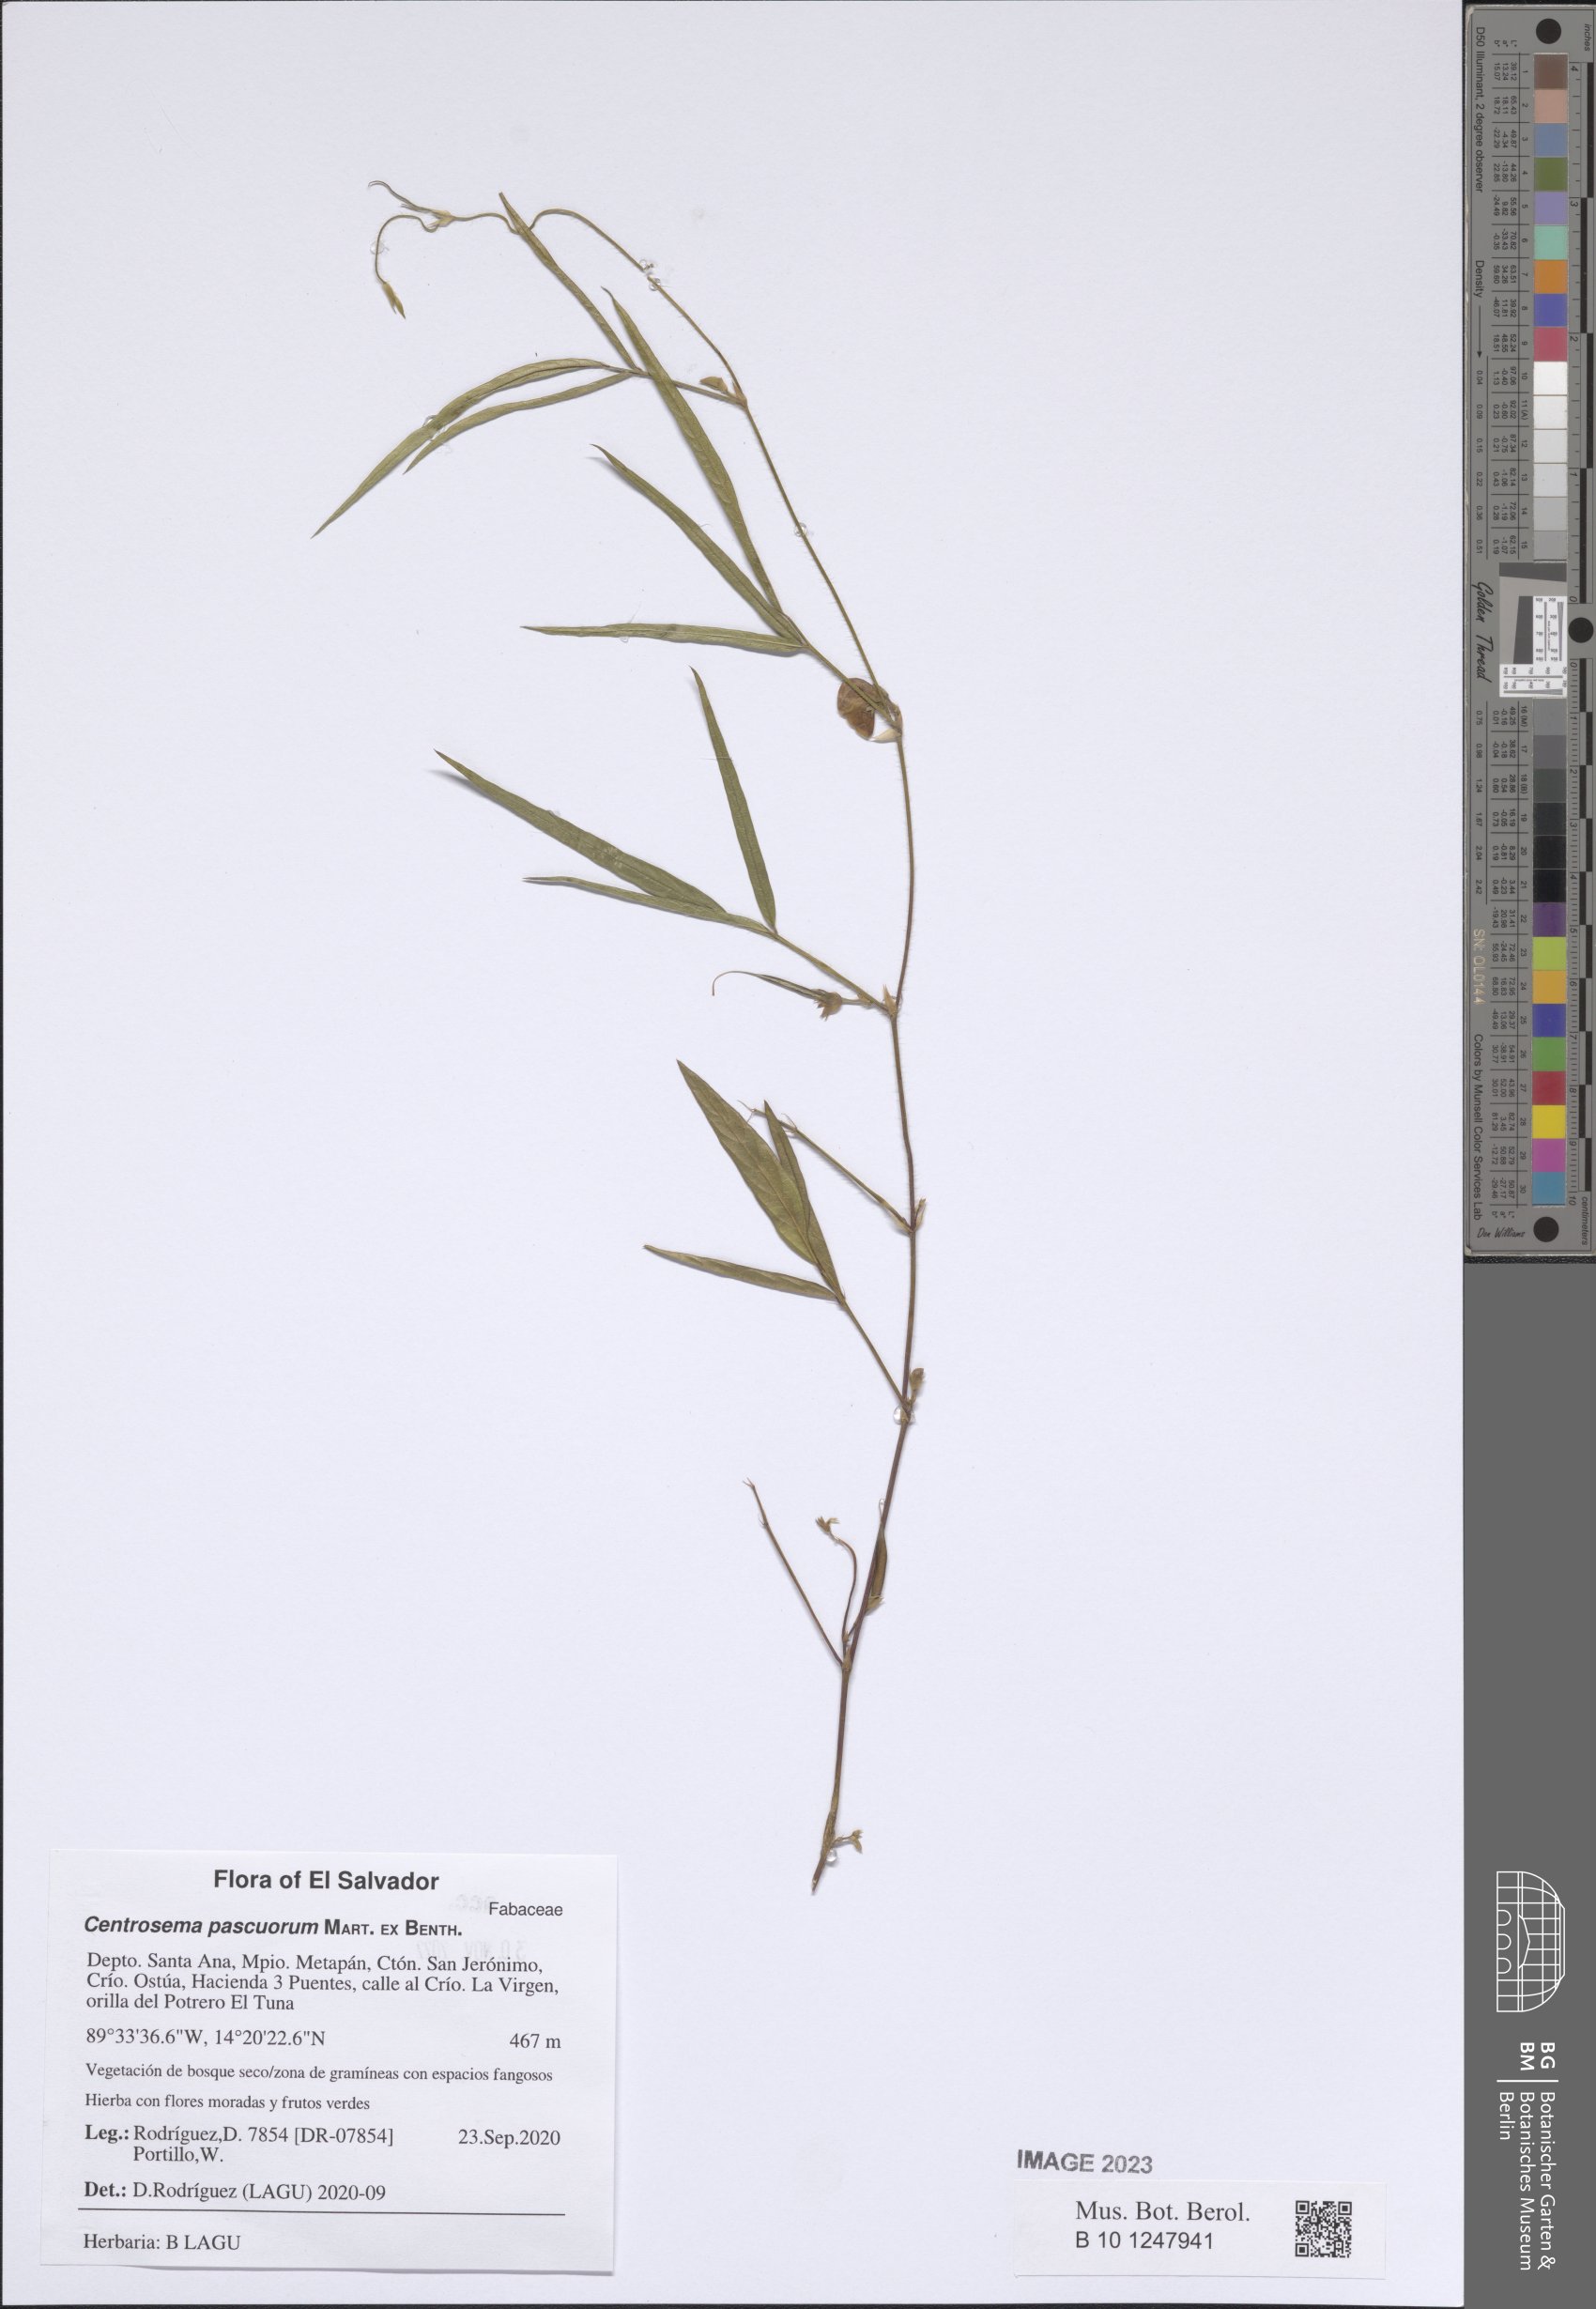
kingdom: Plantae
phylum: Tracheophyta
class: Magnoliopsida
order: Fabales
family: Fabaceae
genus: Centrosema
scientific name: Centrosema pascuorum
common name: Centurion
